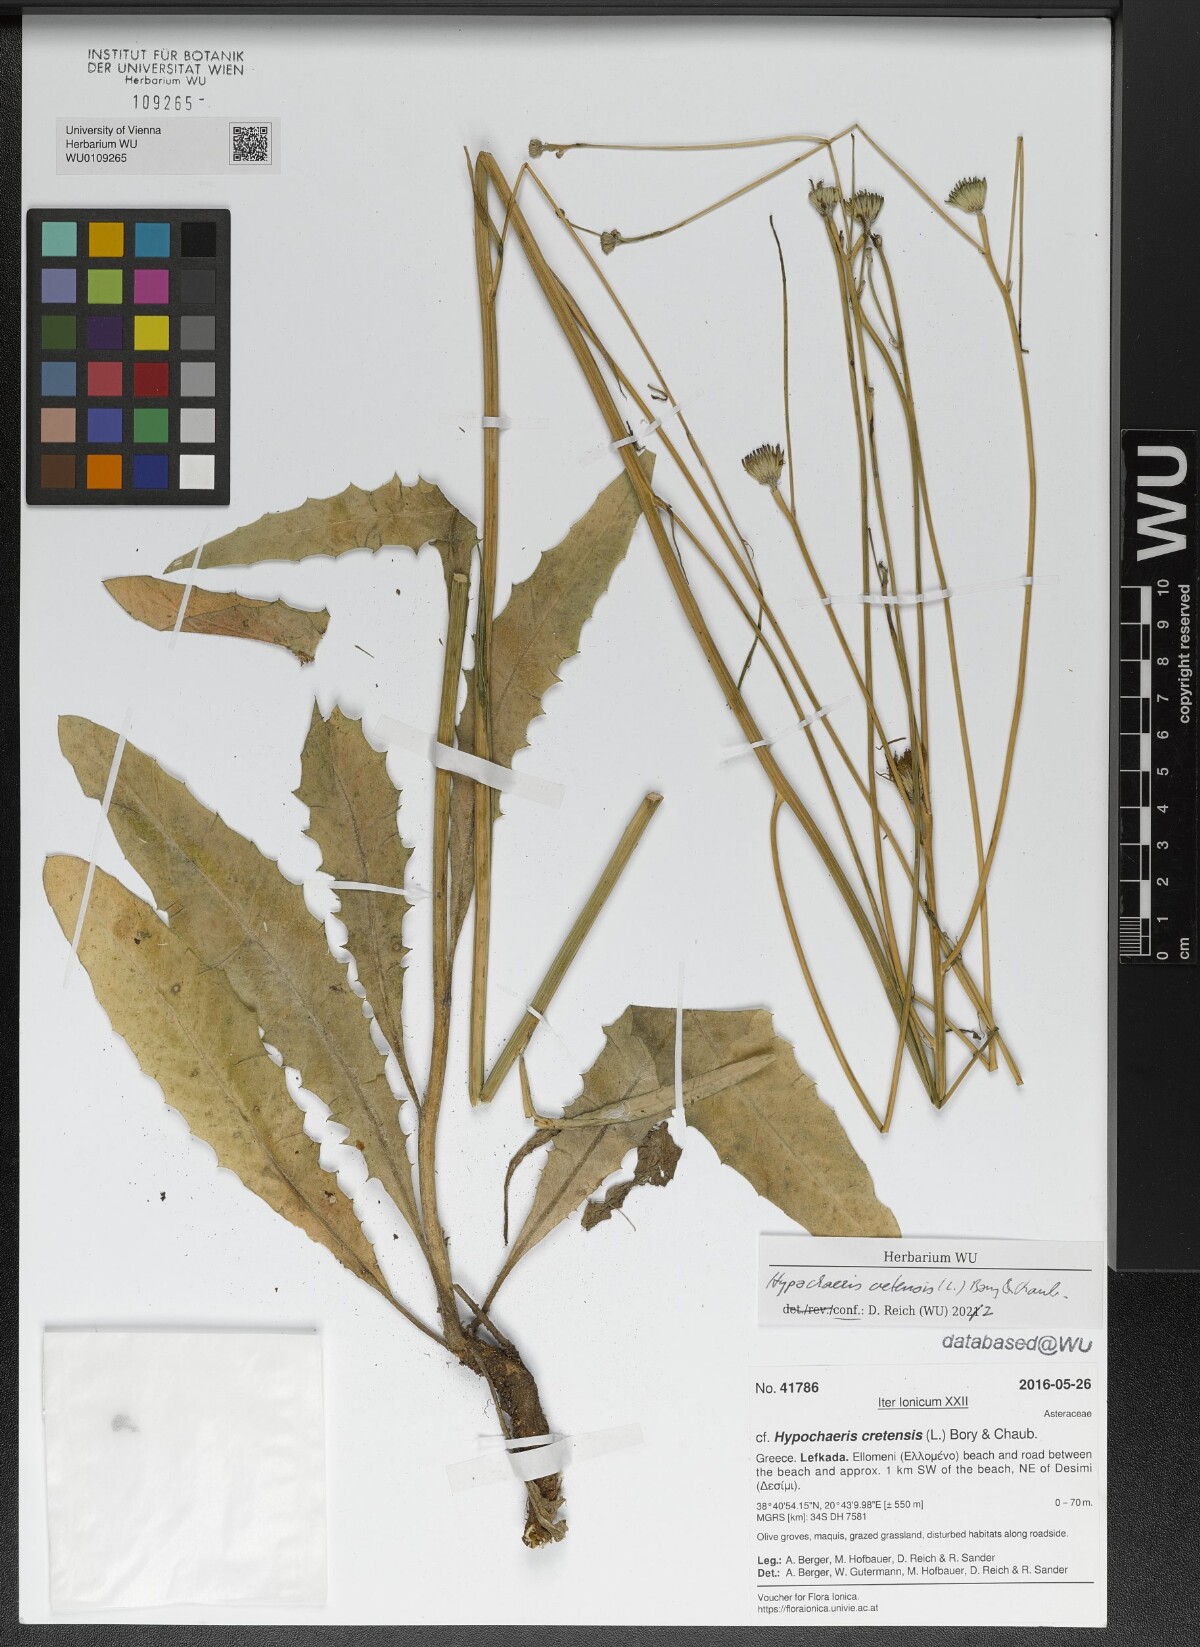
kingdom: Plantae
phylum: Tracheophyta
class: Magnoliopsida
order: Asterales
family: Asteraceae
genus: Hypochaeris
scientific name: Hypochaeris cretensis
